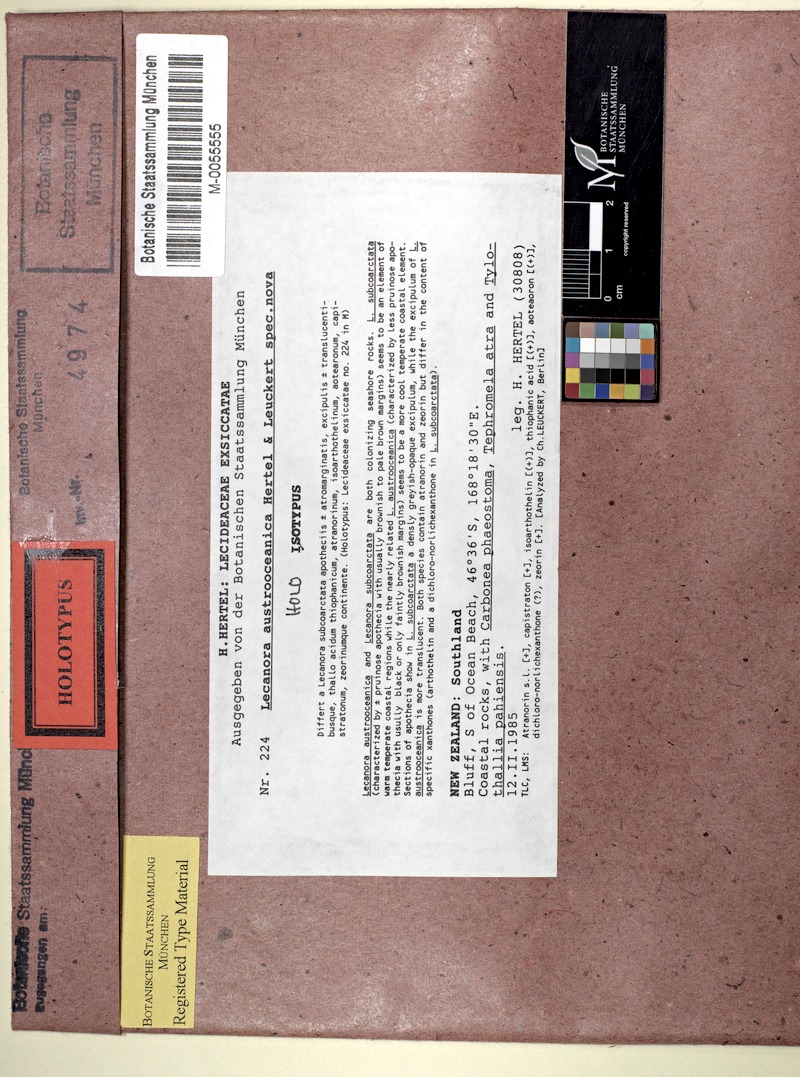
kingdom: Fungi
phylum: Ascomycota
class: Lecanoromycetes
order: Lecanorales
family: Lecanoraceae
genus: Carbonea
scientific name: Carbonea phaeostoma
